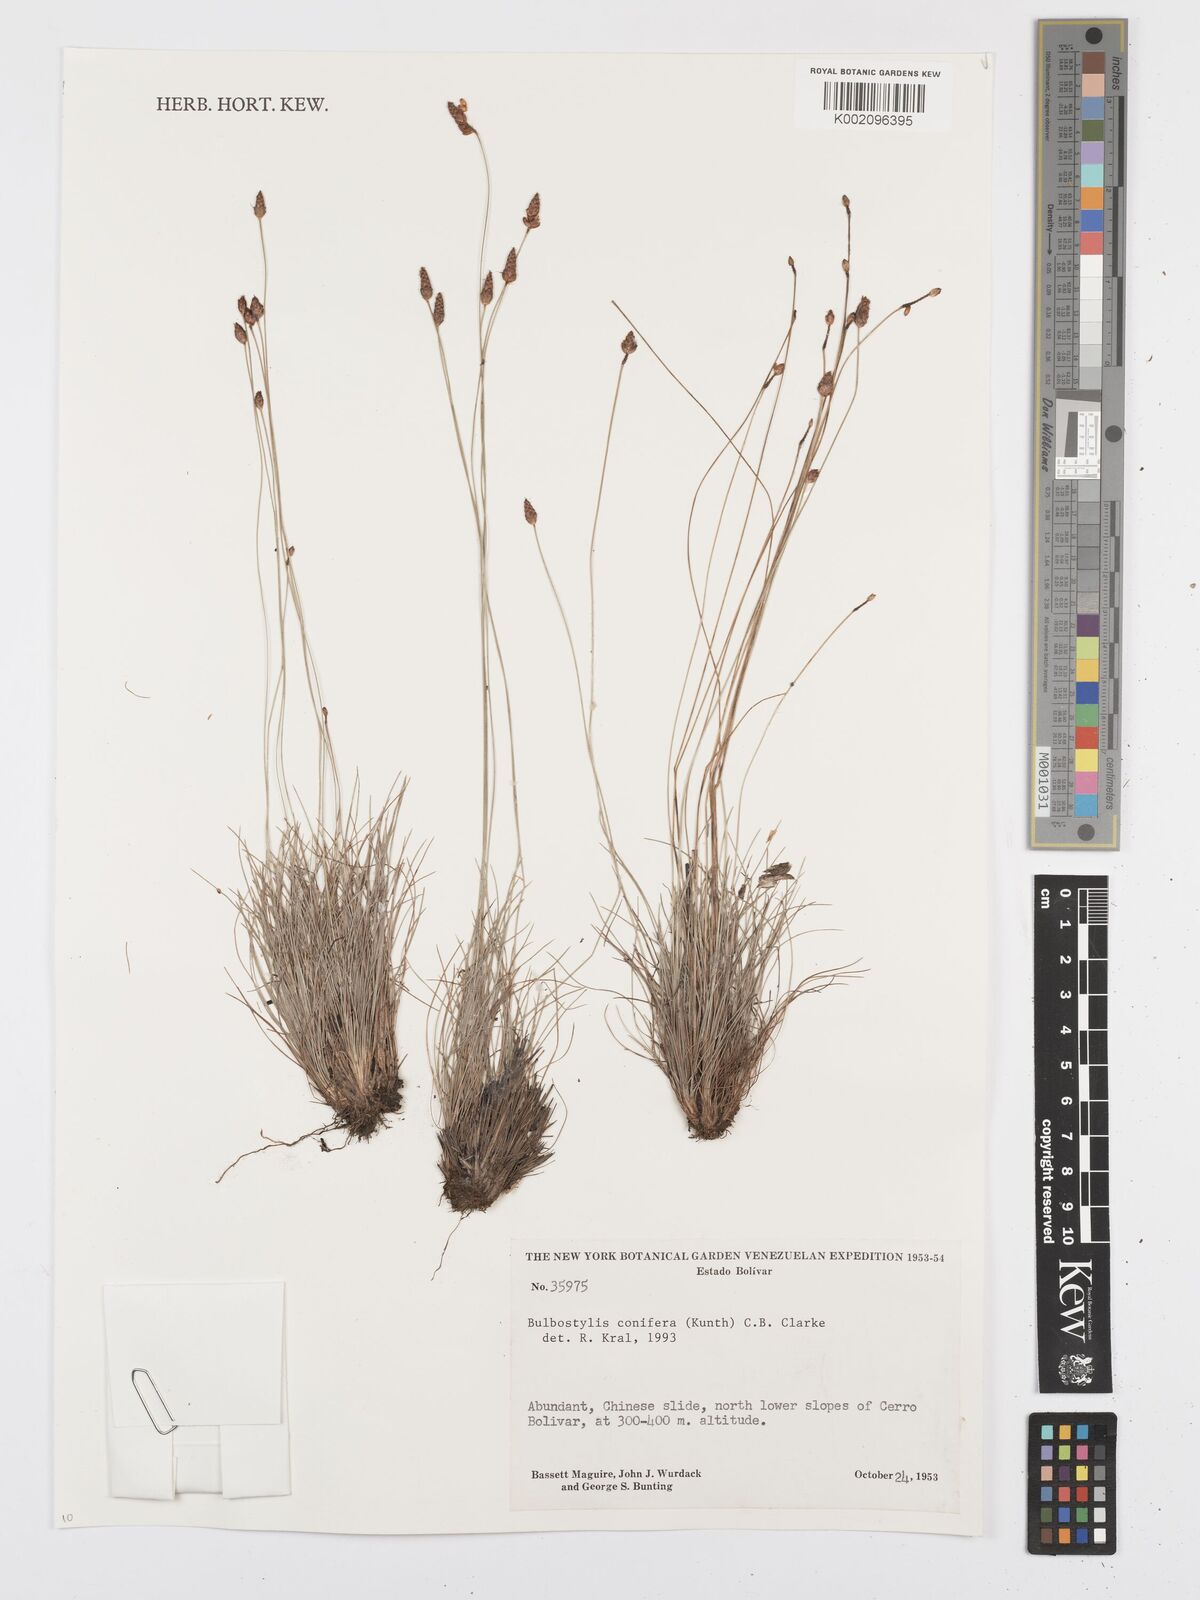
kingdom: Plantae
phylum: Tracheophyta
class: Liliopsida
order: Poales
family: Cyperaceae
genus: Bulbostylis
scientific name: Bulbostylis conifera
